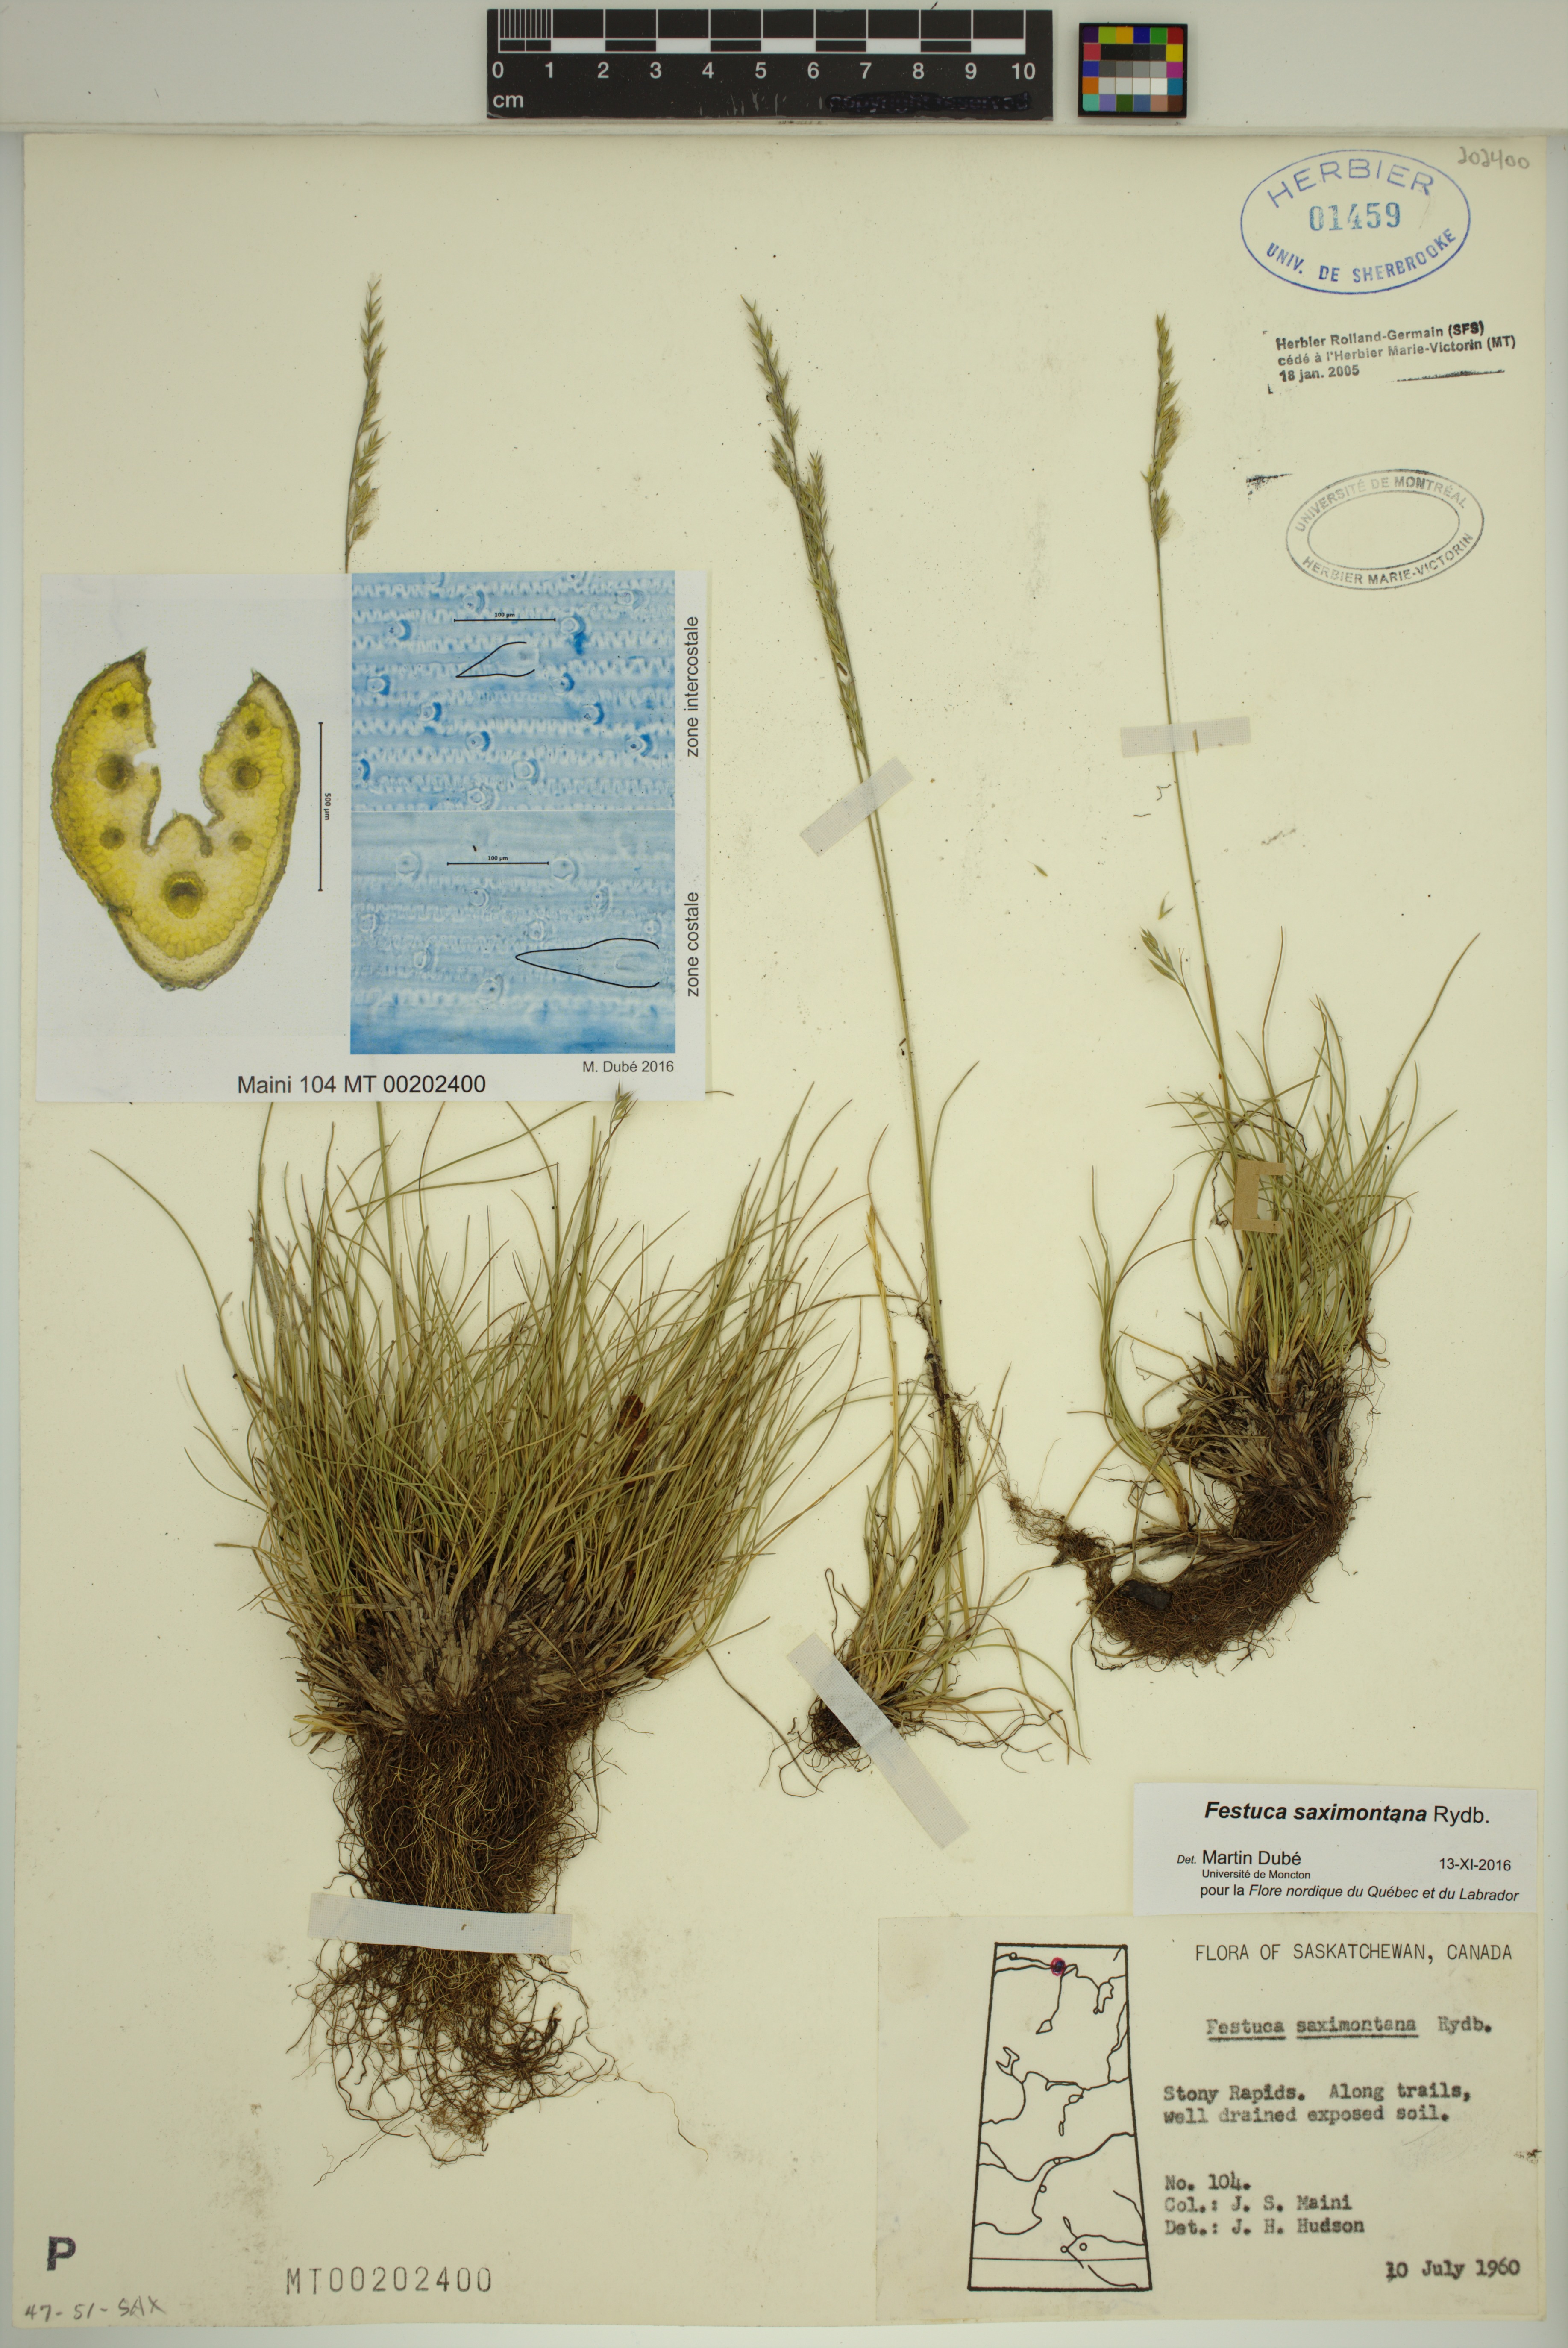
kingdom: Plantae
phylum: Tracheophyta
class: Liliopsida
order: Poales
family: Poaceae
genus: Festuca
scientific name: Festuca saximontana
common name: Mountain fescue
